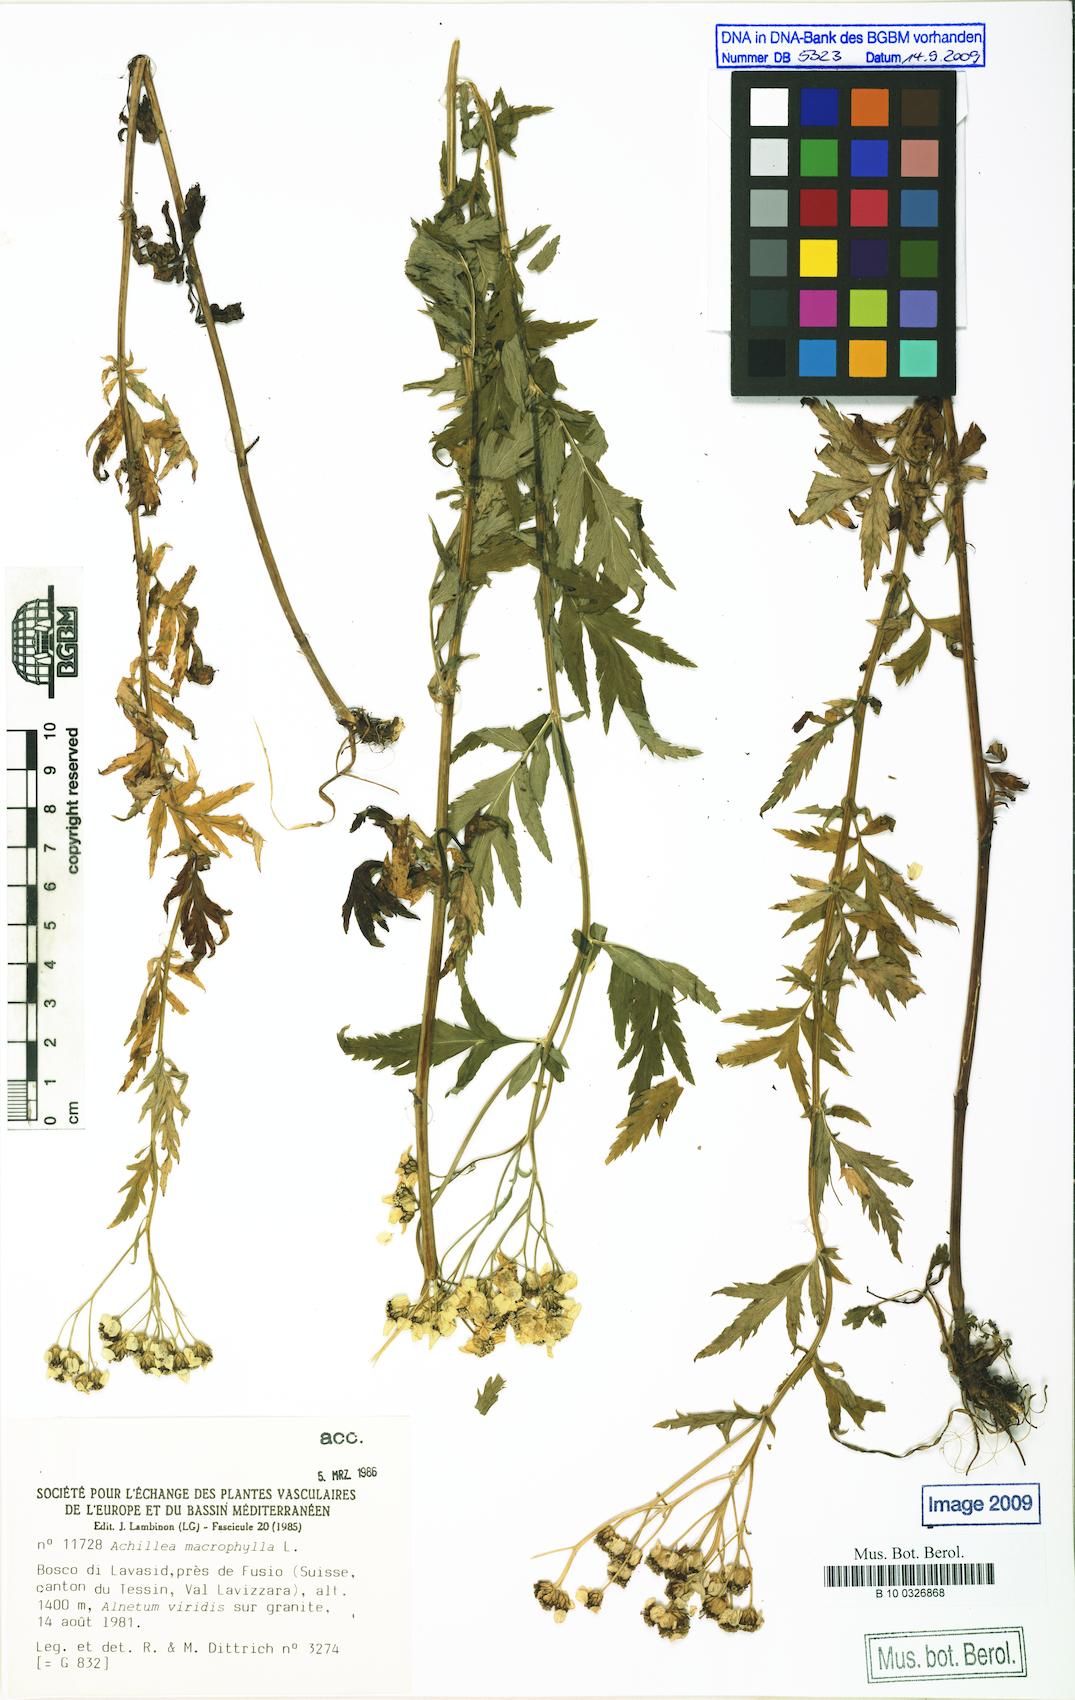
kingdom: Plantae
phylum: Tracheophyta
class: Magnoliopsida
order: Asterales
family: Asteraceae
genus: Achillea
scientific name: Achillea macrophylla
